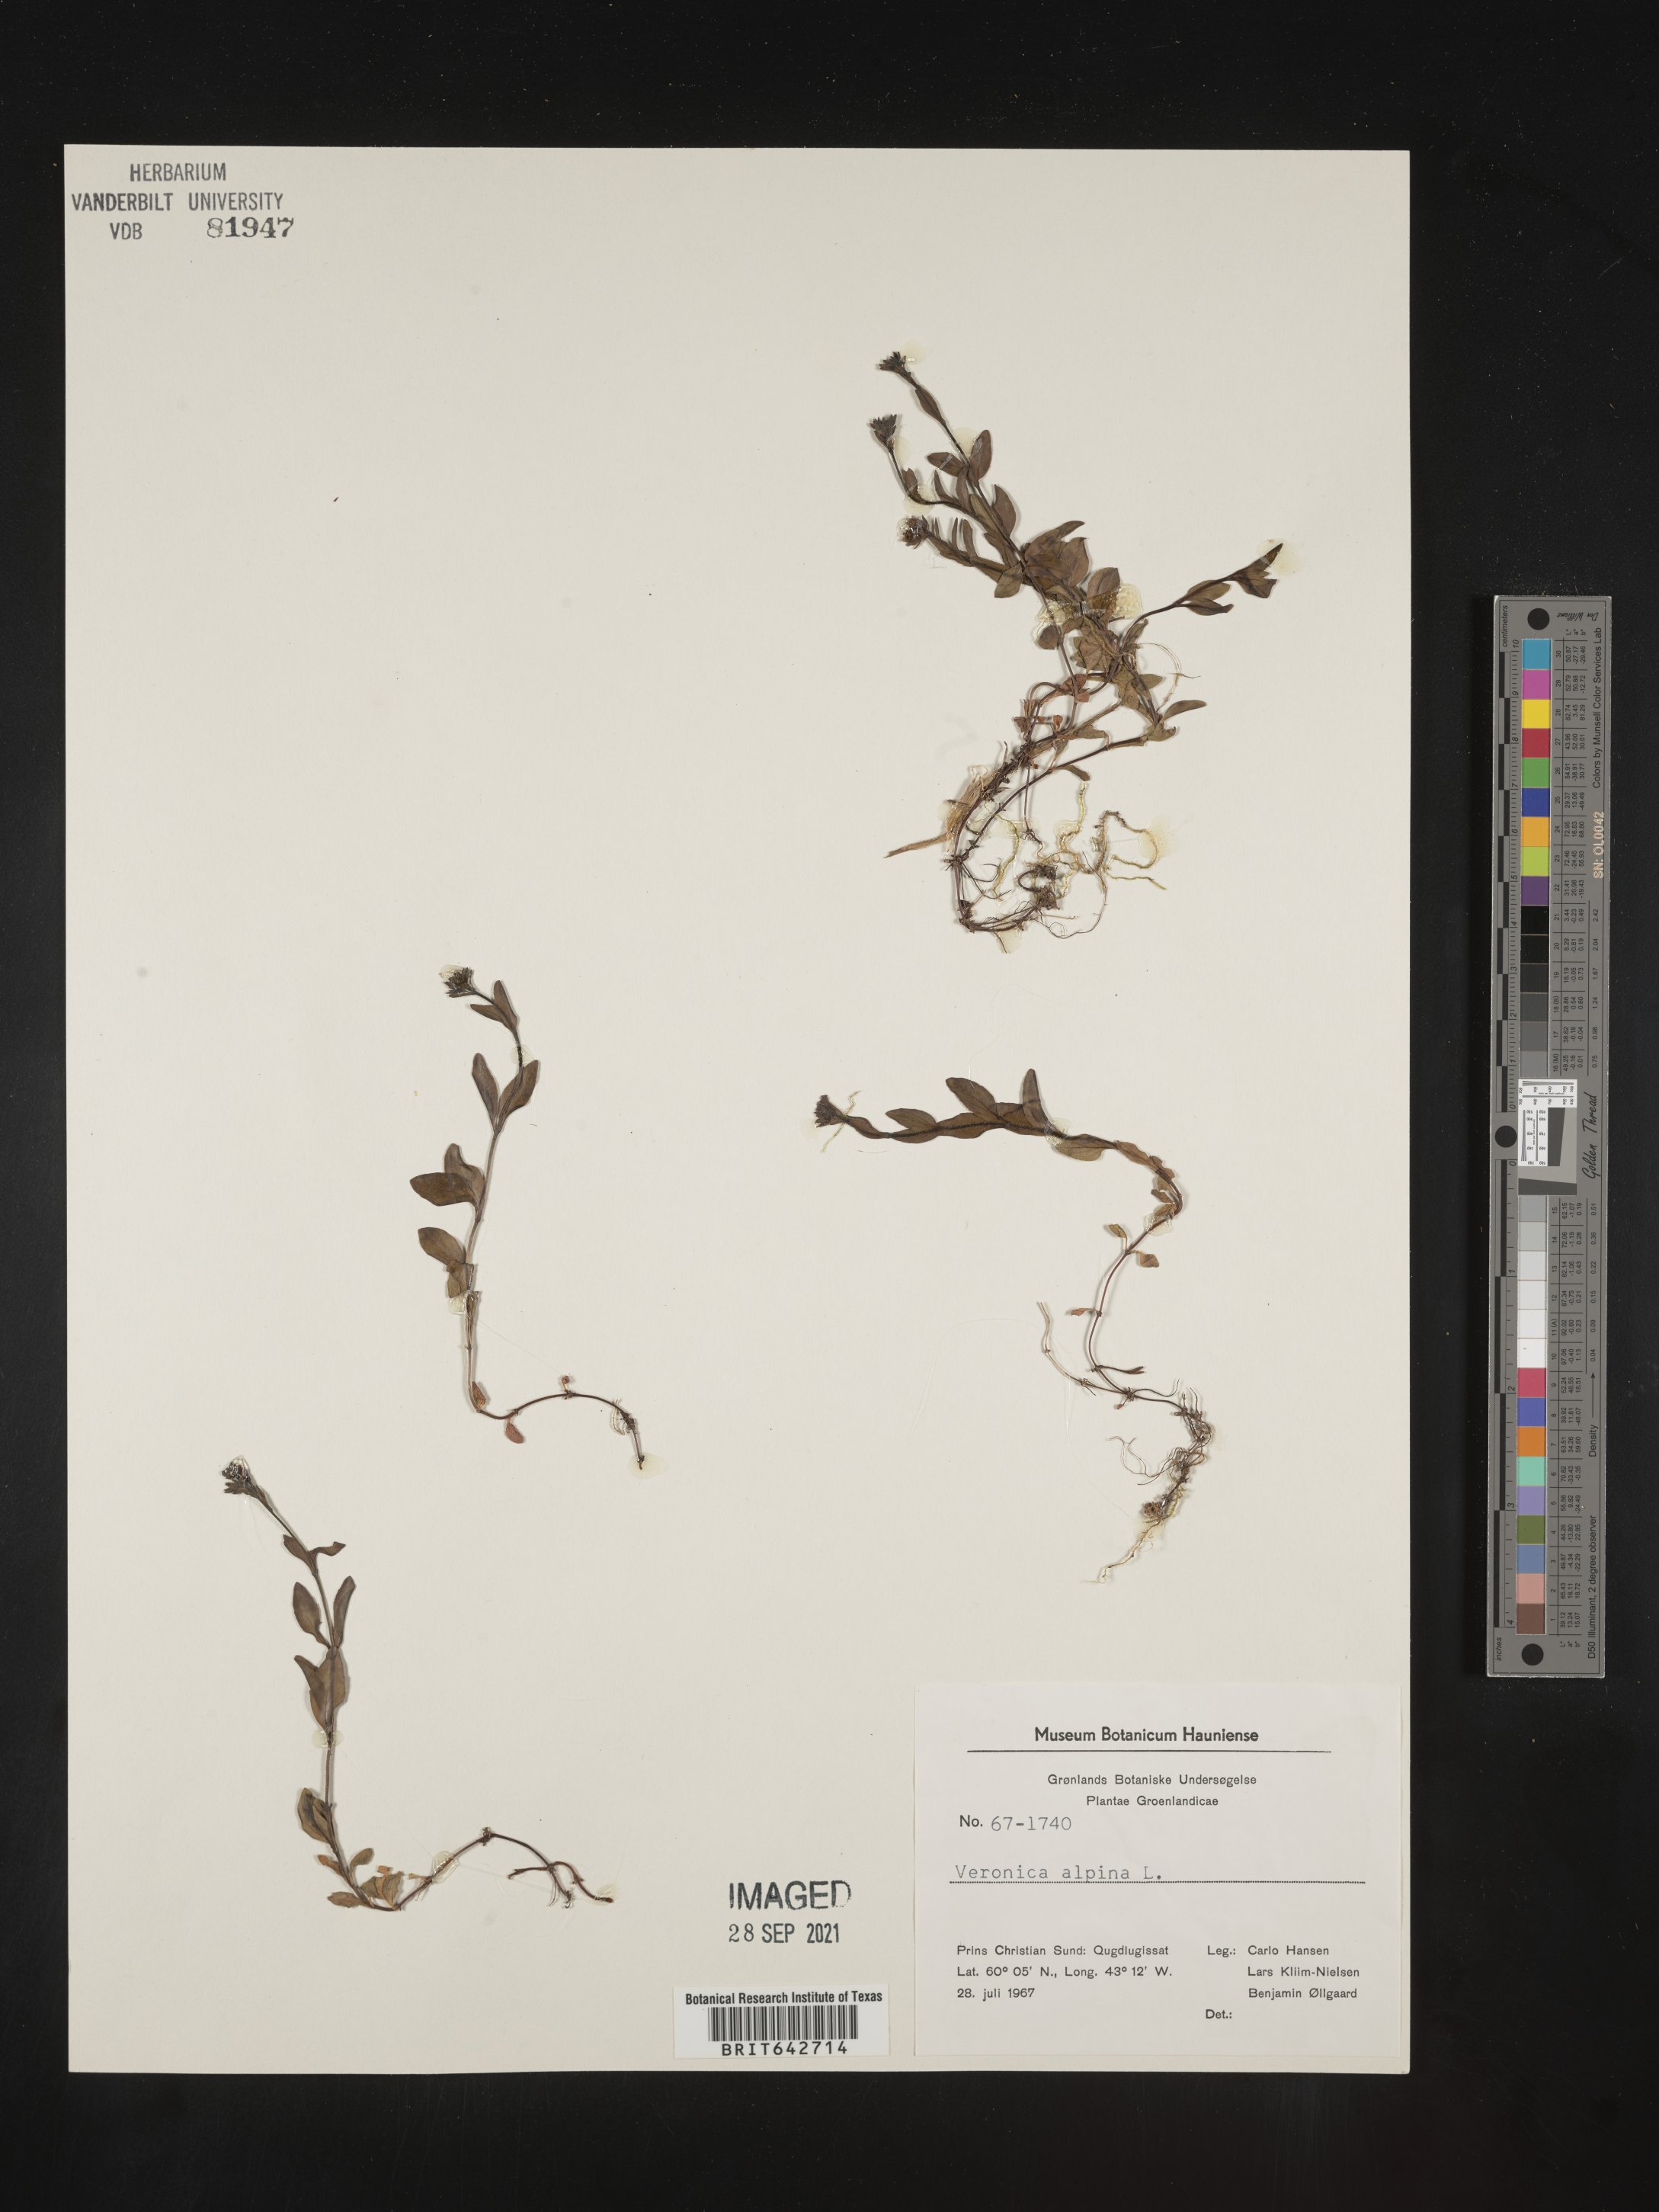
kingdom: Plantae
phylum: Tracheophyta
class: Magnoliopsida
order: Lamiales
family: Plantaginaceae
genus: Veronica
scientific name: Veronica
